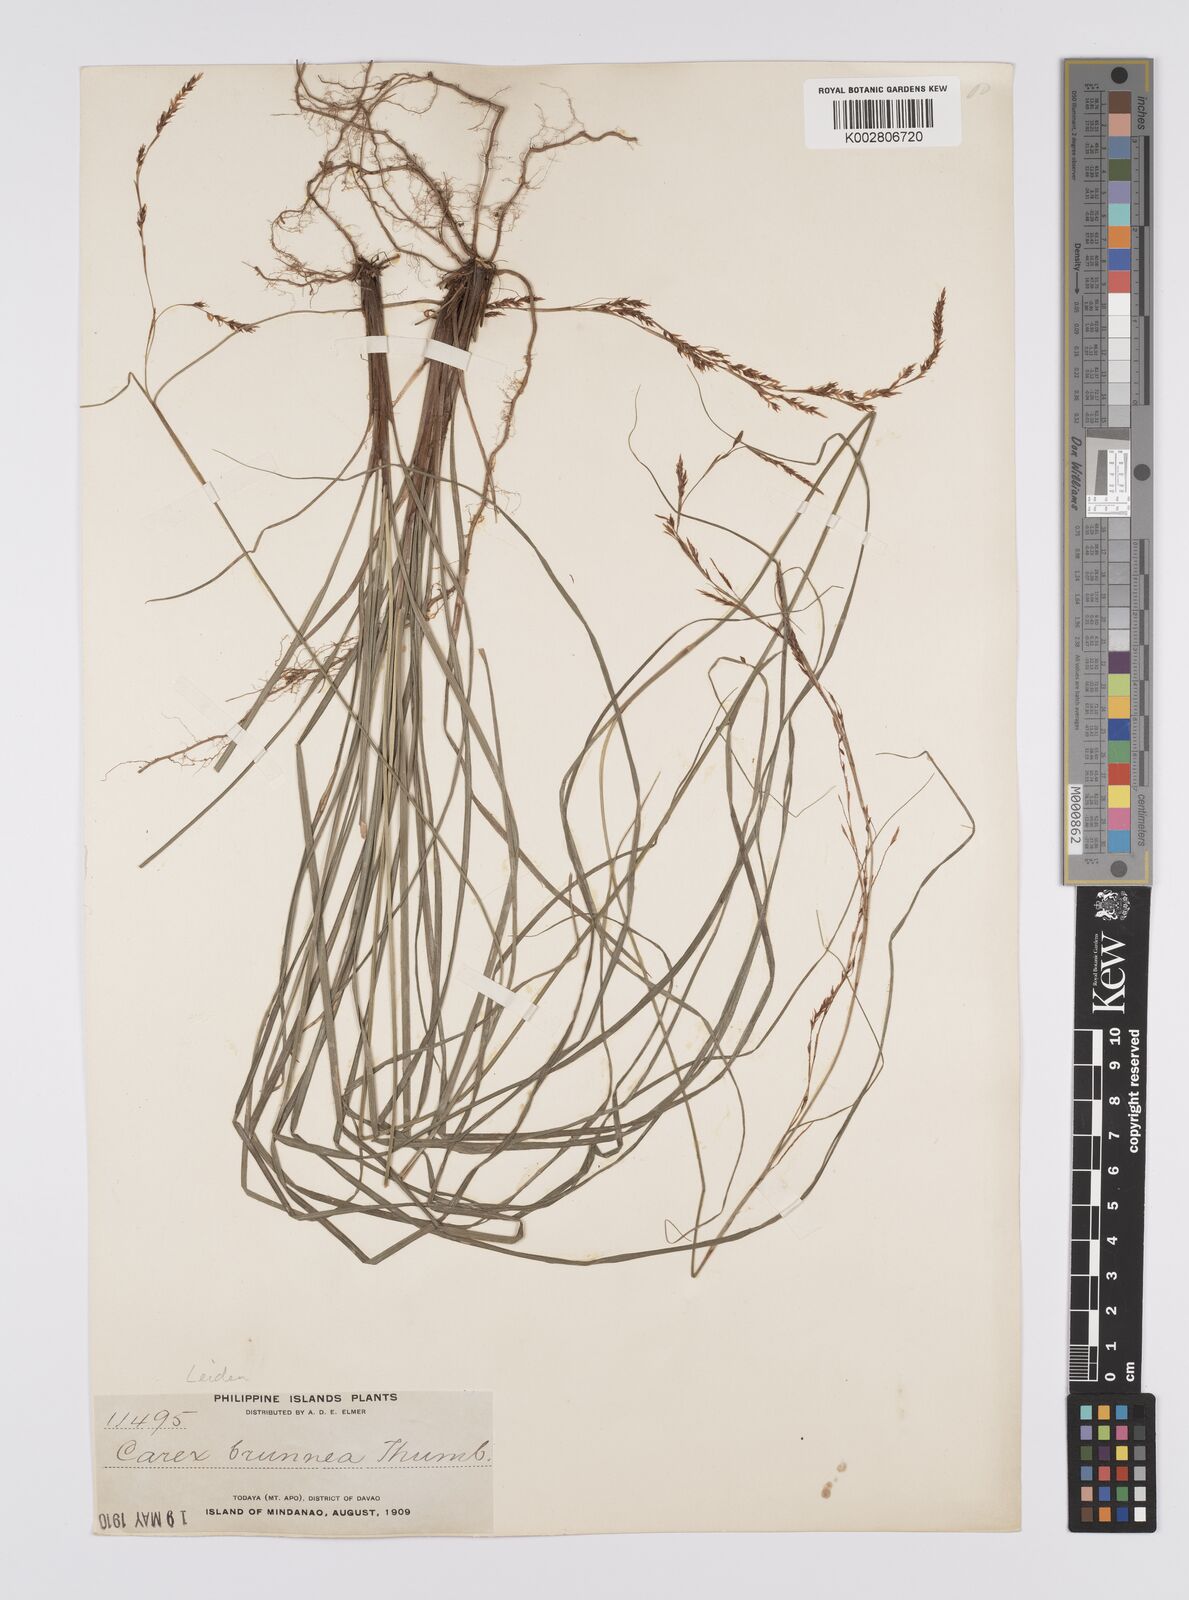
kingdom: Plantae
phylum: Tracheophyta
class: Liliopsida
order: Poales
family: Cyperaceae
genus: Carex
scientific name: Carex brunnea
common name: Greater brown sedge
